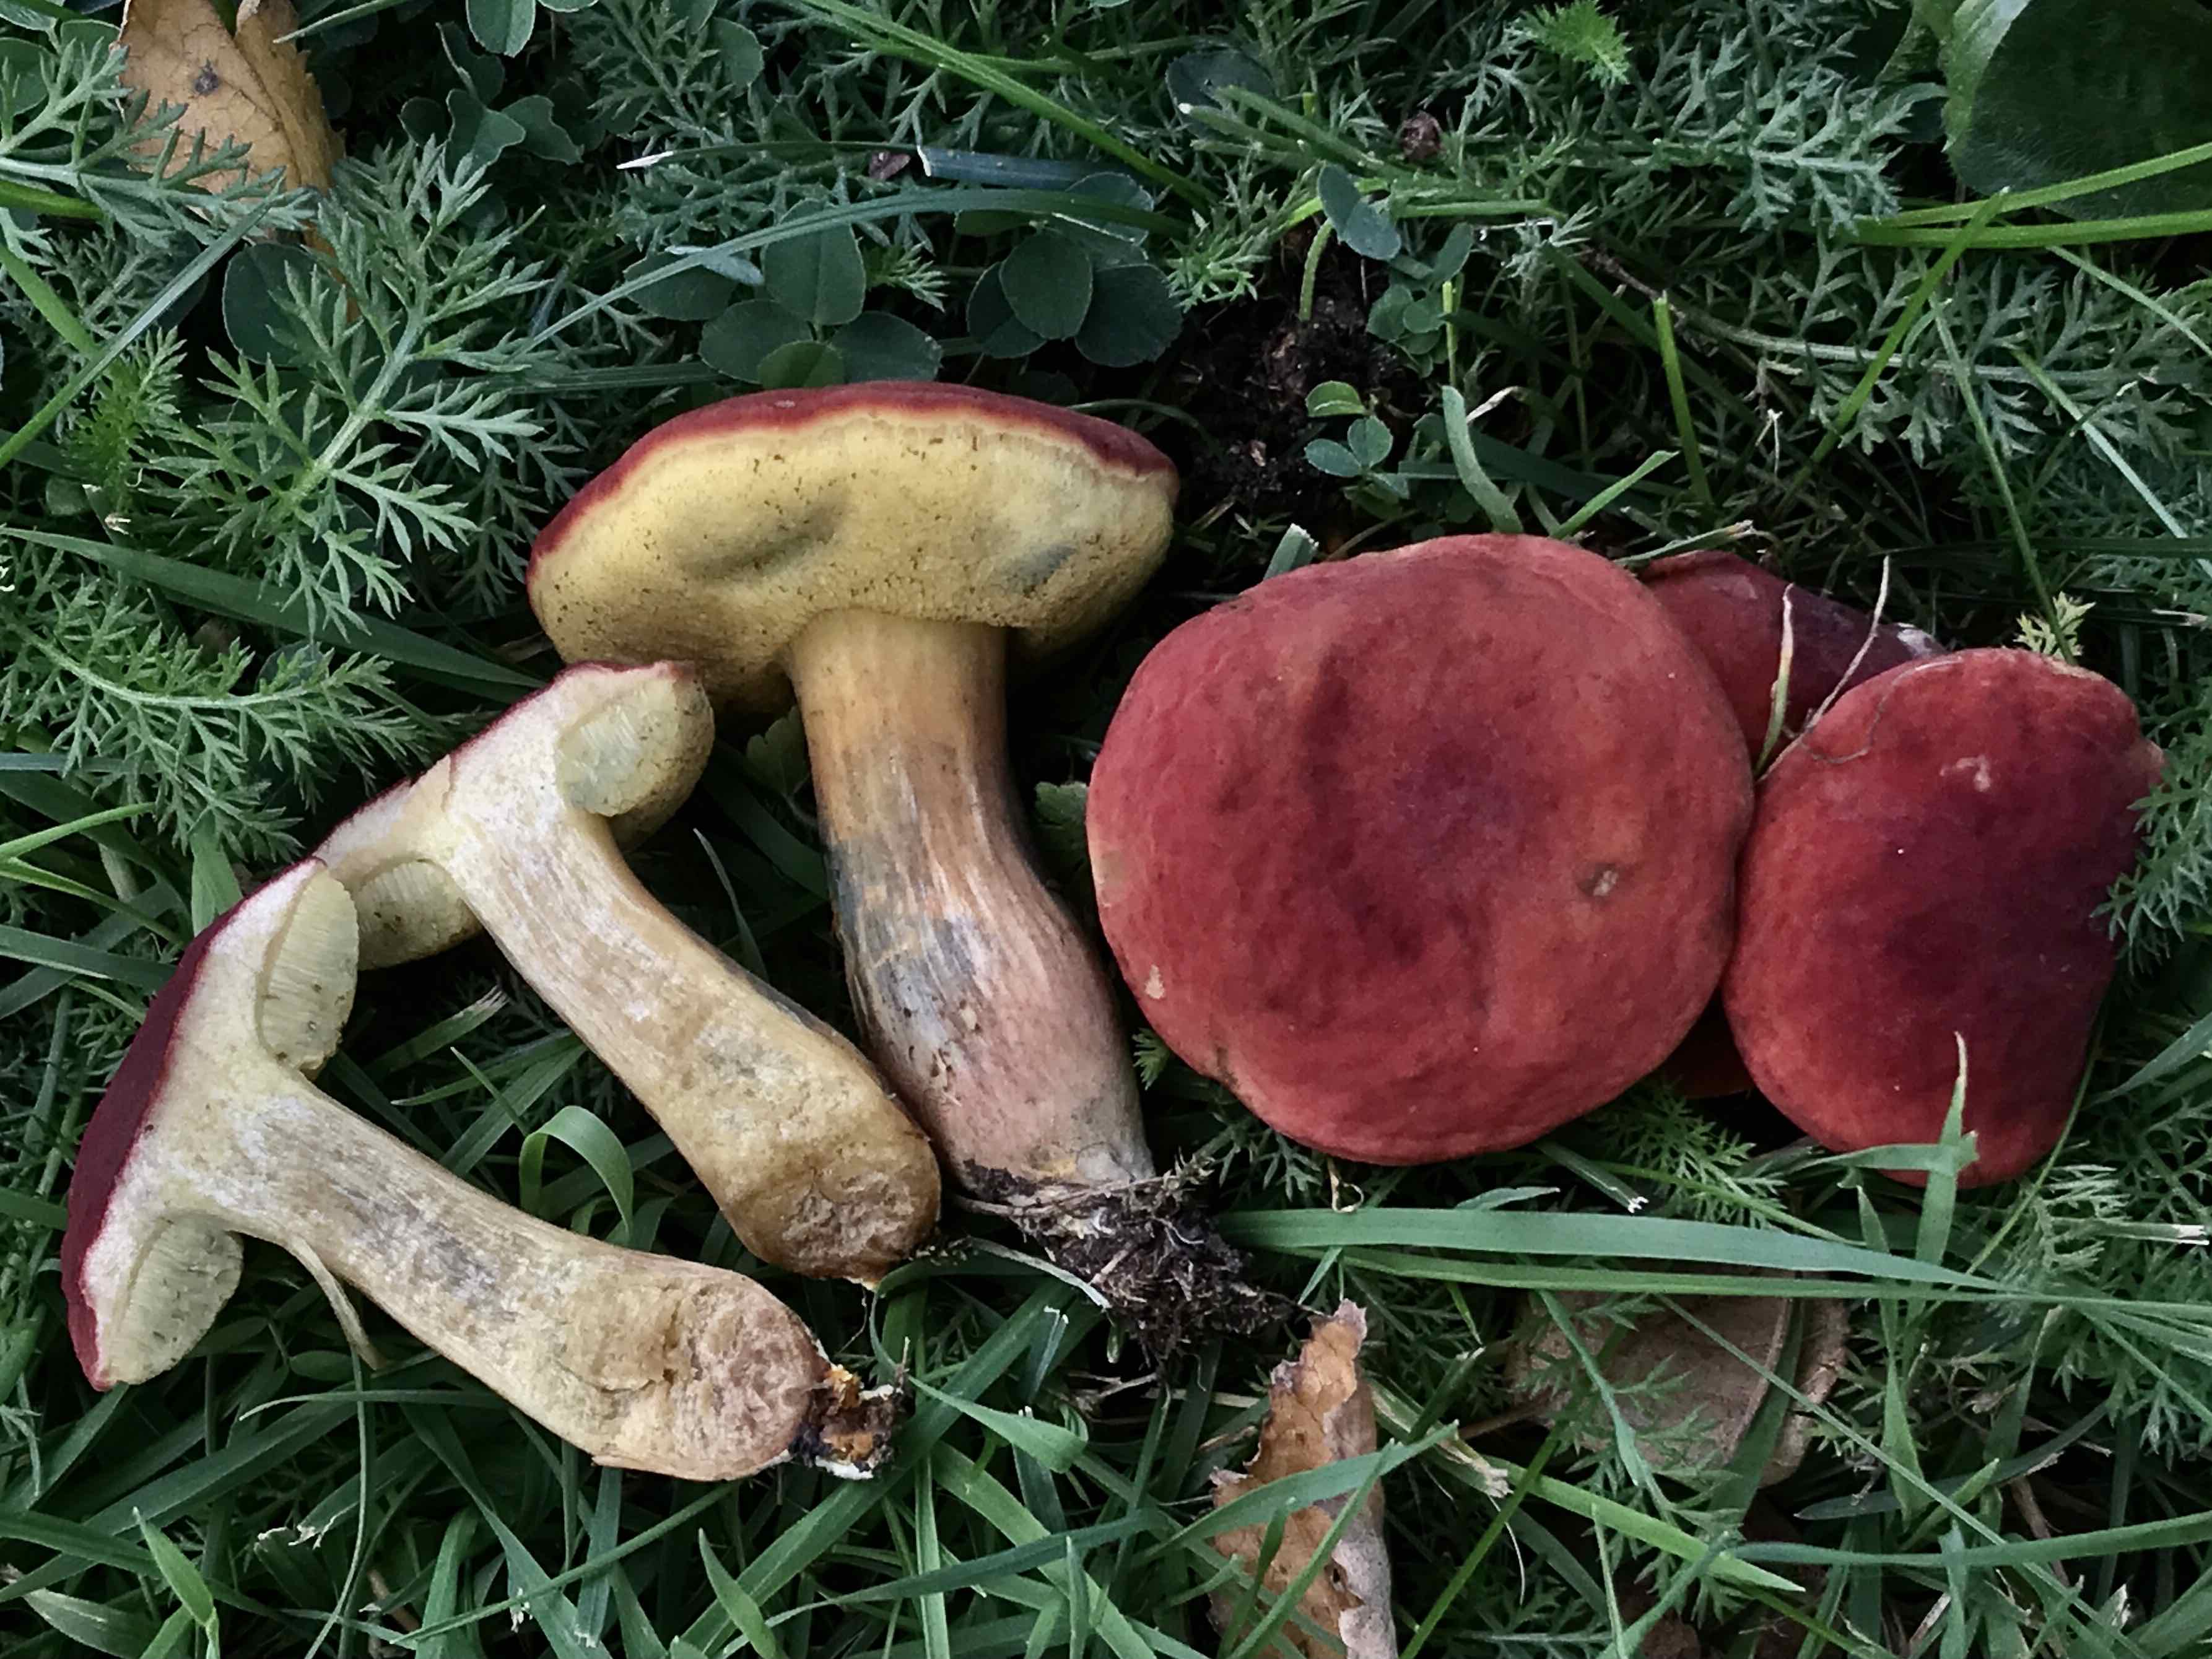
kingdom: Fungi
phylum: Basidiomycota
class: Agaricomycetes
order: Boletales
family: Boletaceae
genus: Hortiboletus
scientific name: Hortiboletus rubellus
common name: blodrød rørhat
